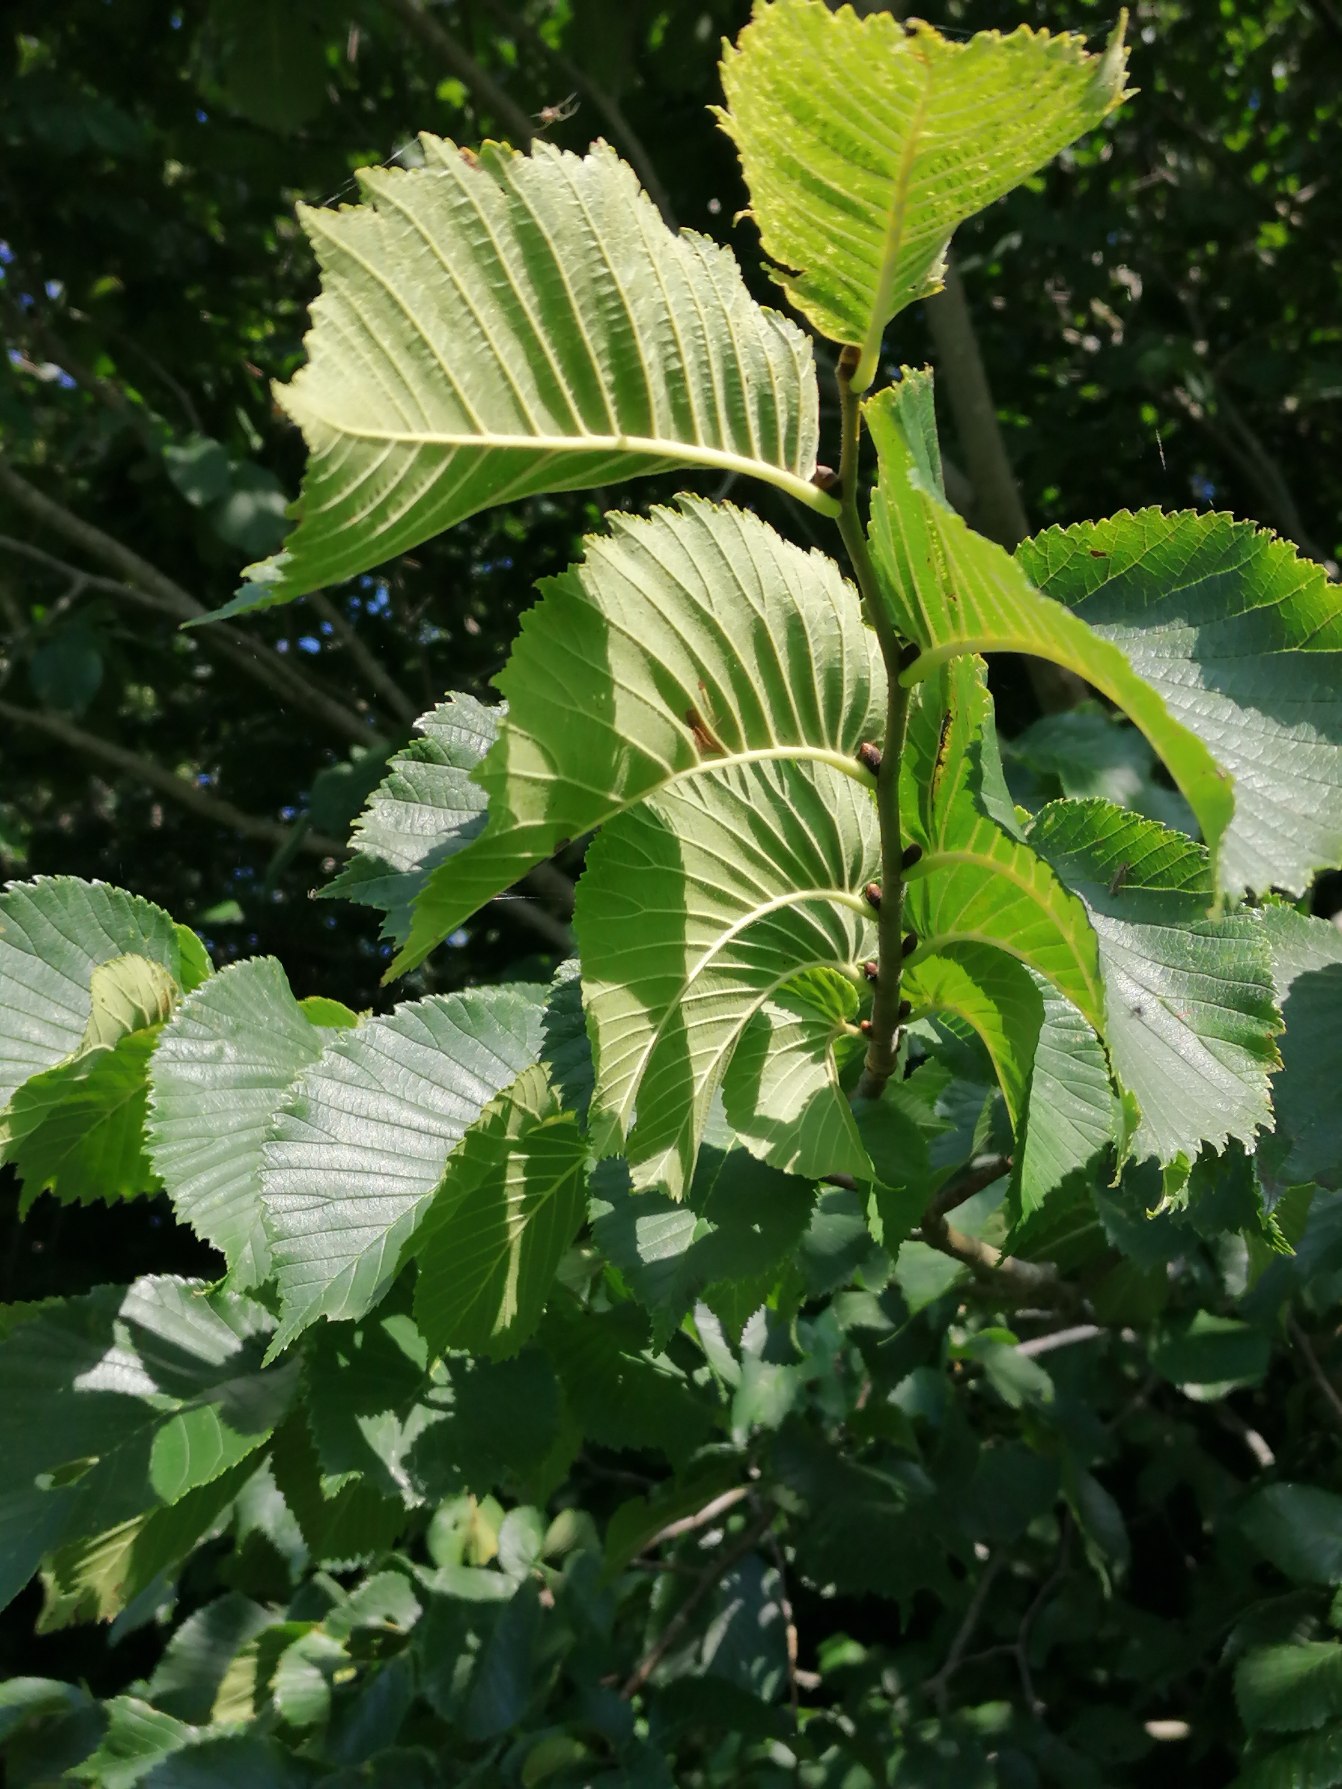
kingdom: Plantae
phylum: Tracheophyta
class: Magnoliopsida
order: Rosales
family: Ulmaceae
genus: Ulmus
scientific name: Ulmus glabra
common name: Skov-elm/storbladet elm
